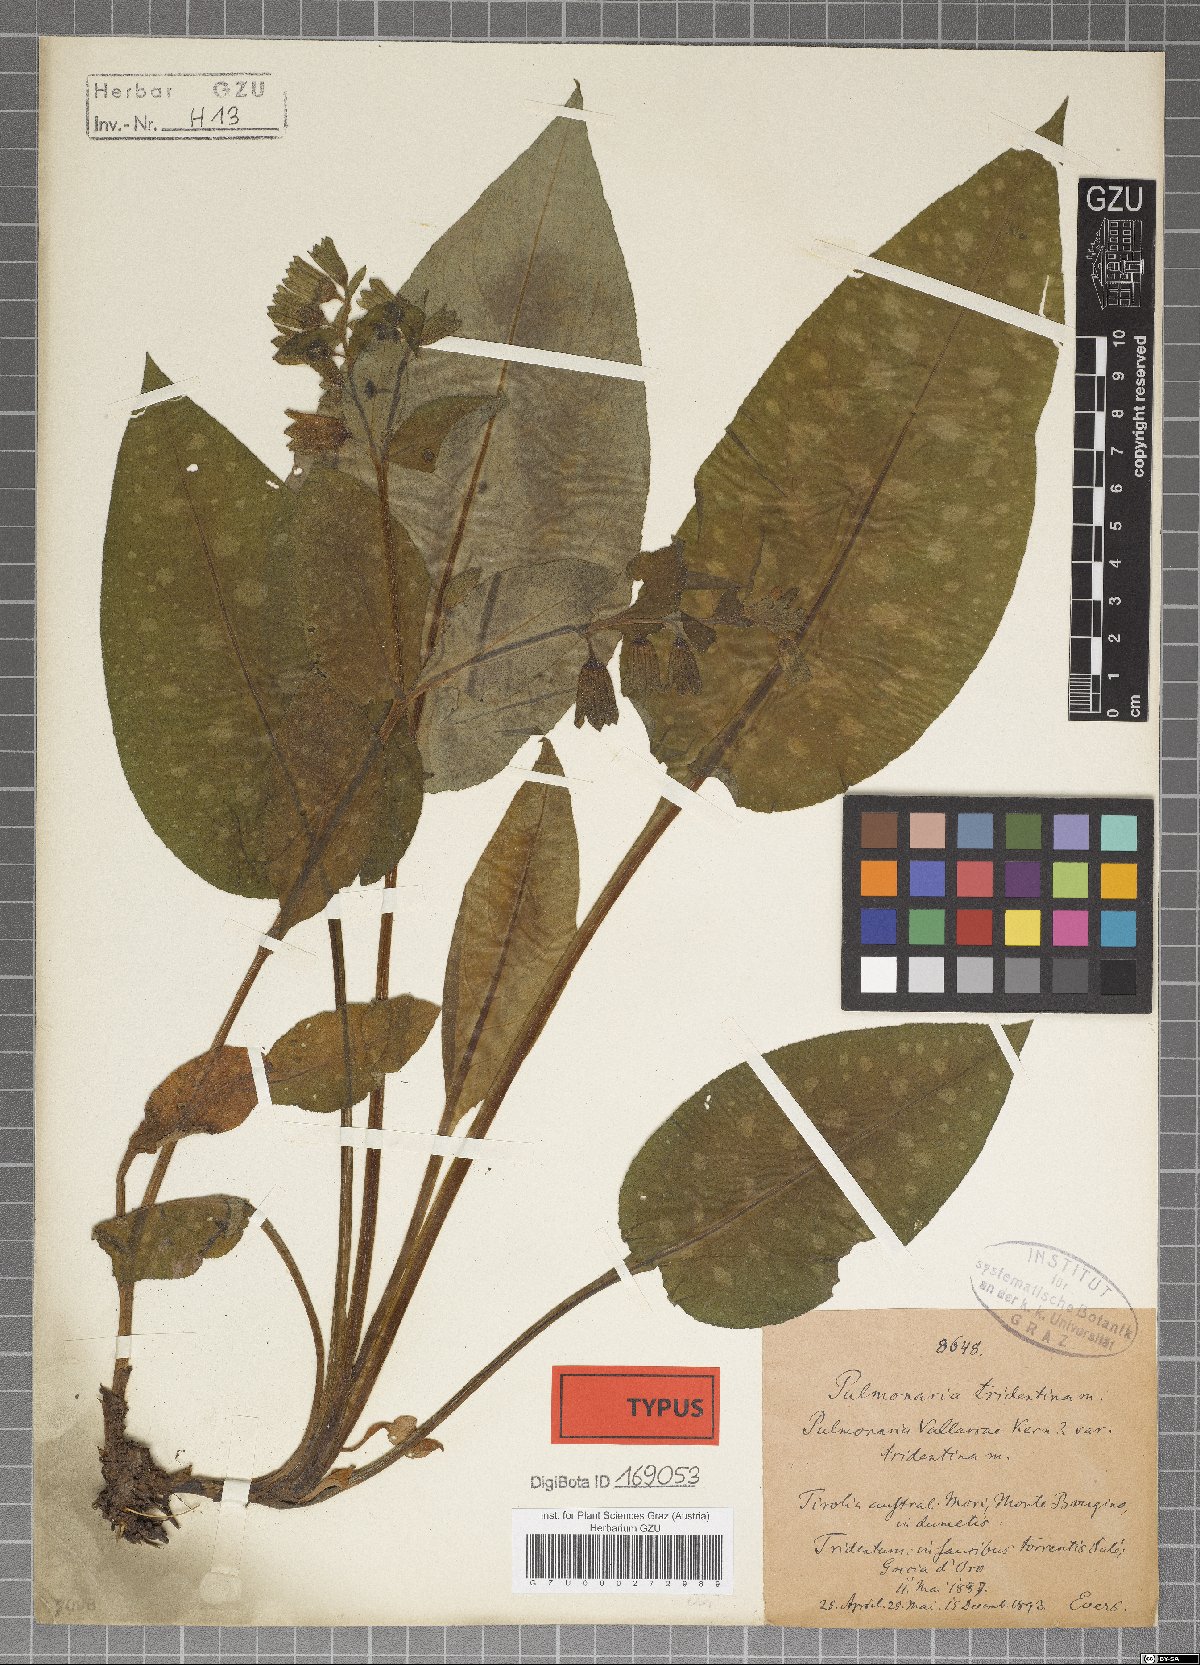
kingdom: Plantae
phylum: Tracheophyta
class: Magnoliopsida
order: Boraginales
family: Boraginaceae
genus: Pulmonaria
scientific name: Pulmonaria officinalis
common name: Lungwort
